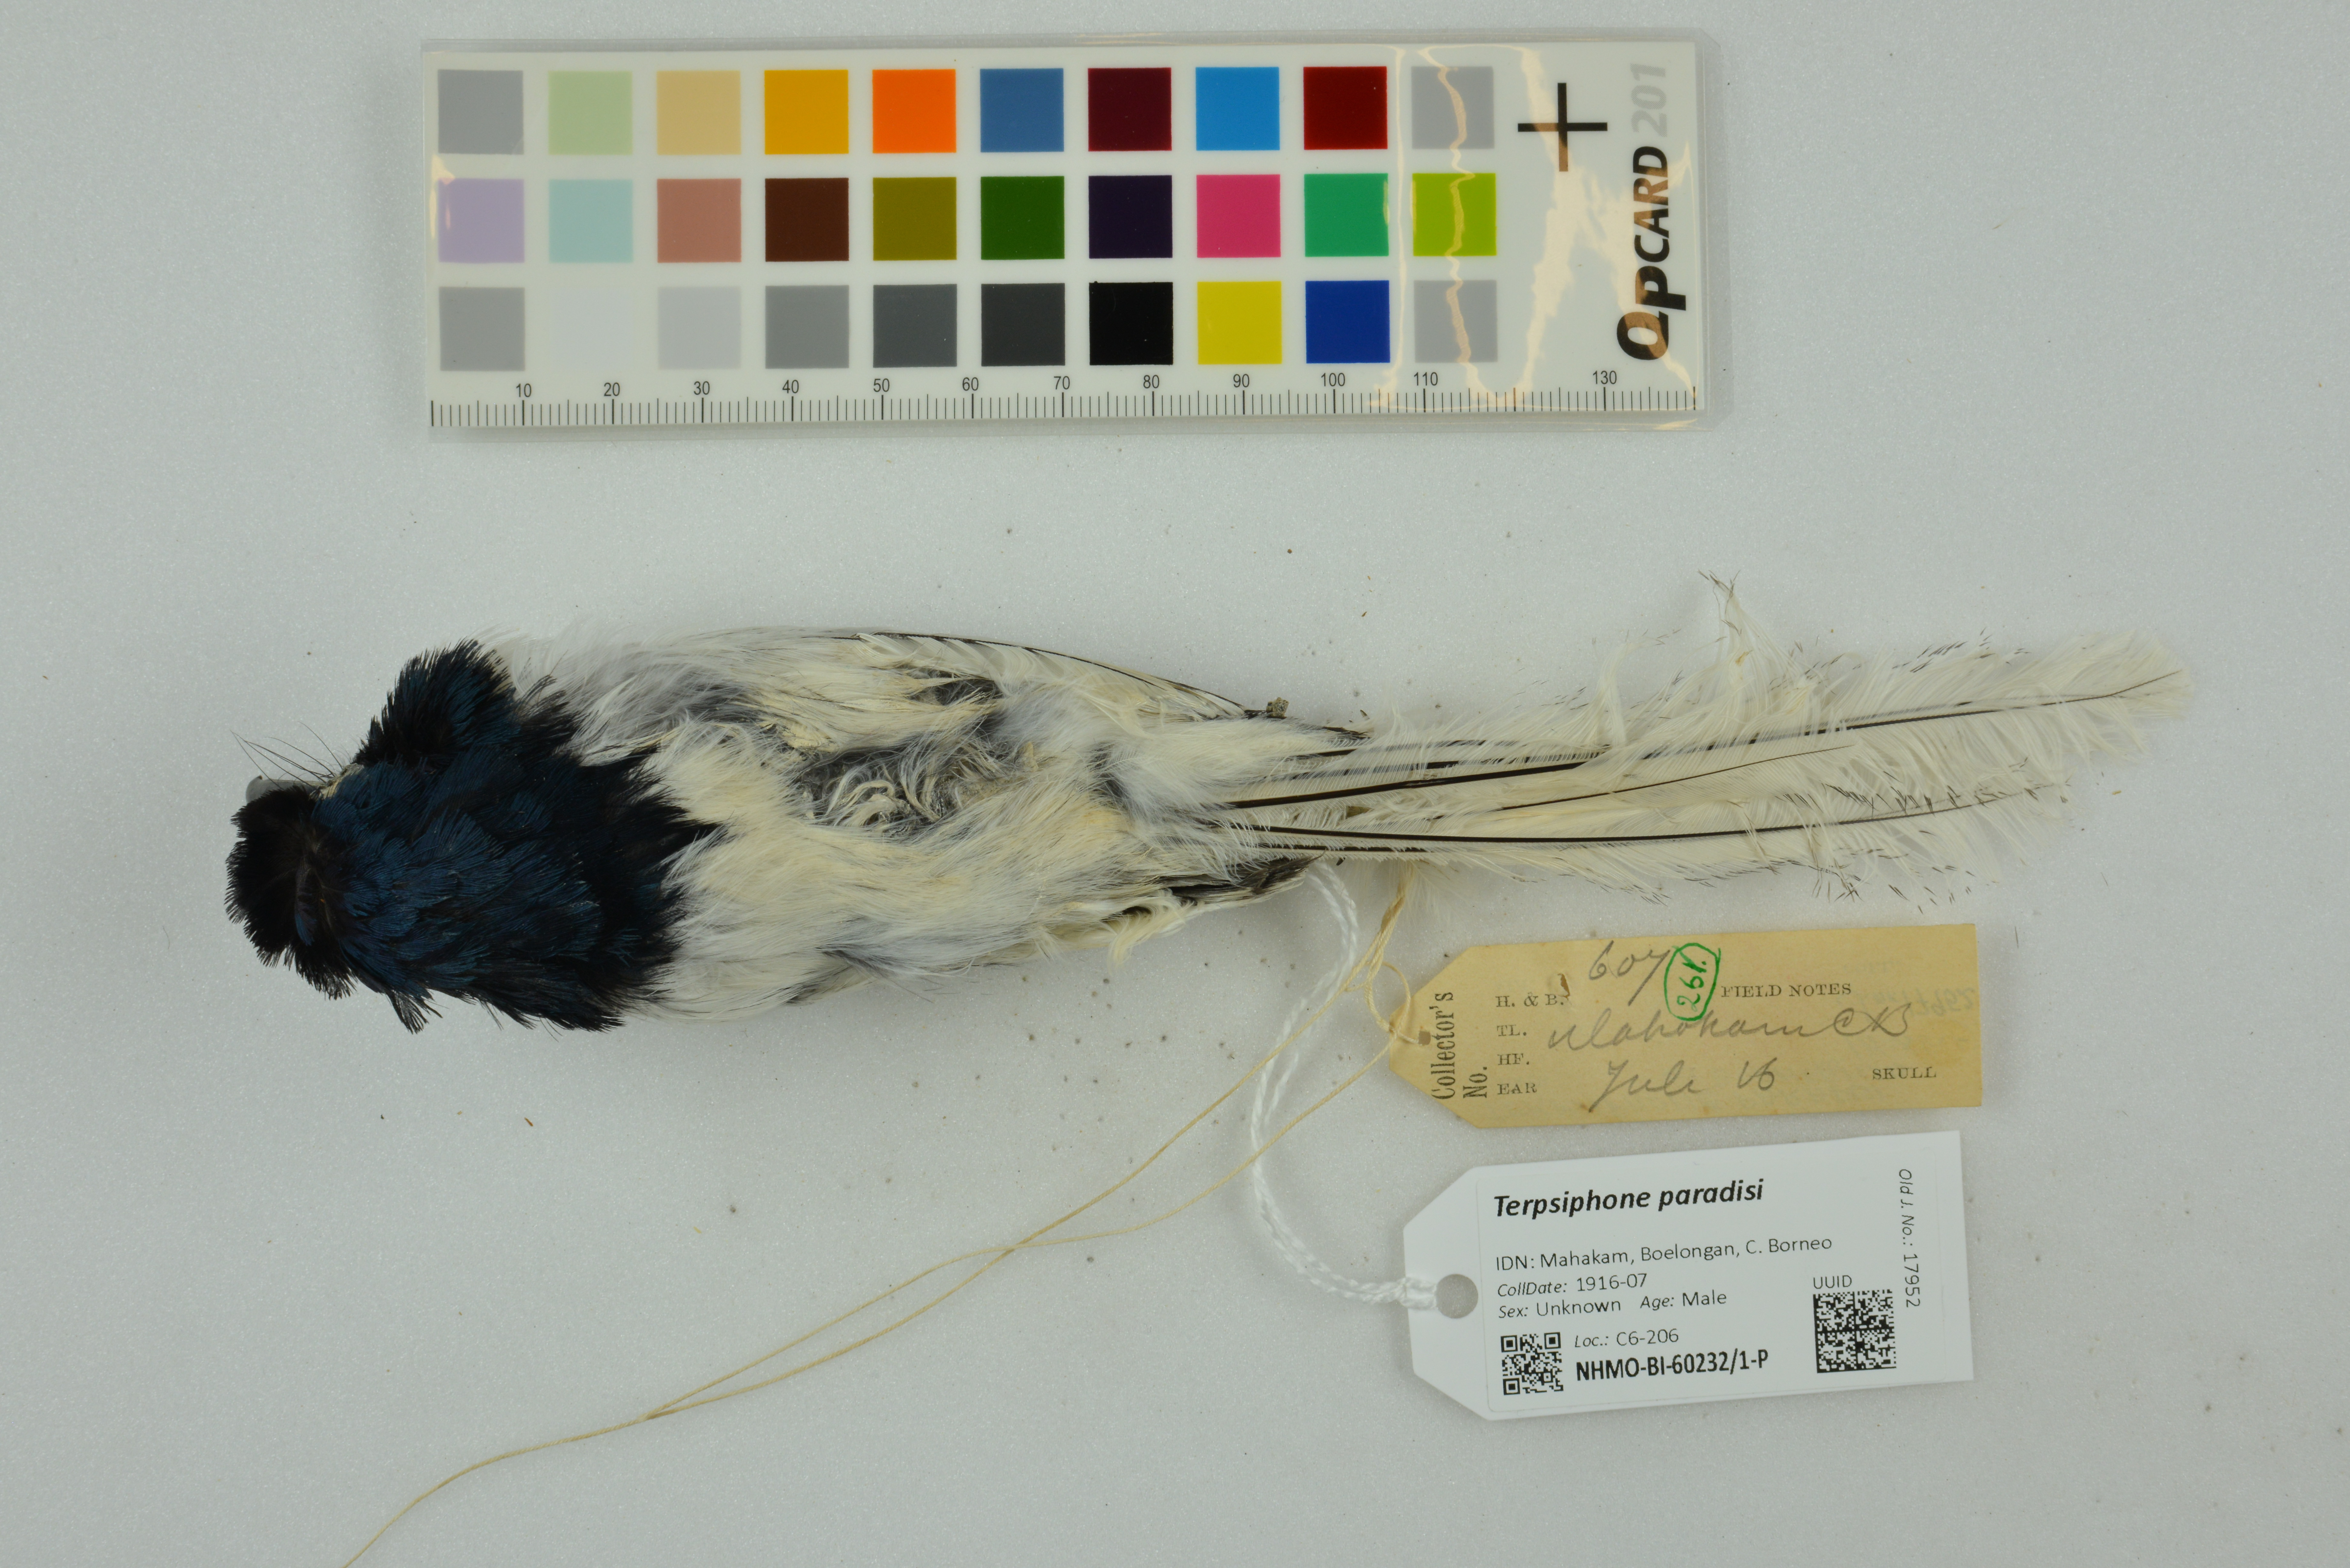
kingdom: Animalia
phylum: Chordata
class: Aves
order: Passeriformes
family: Monarchidae
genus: Terpsiphone
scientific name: Terpsiphone paradisi
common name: Indian paradise flycatcher
